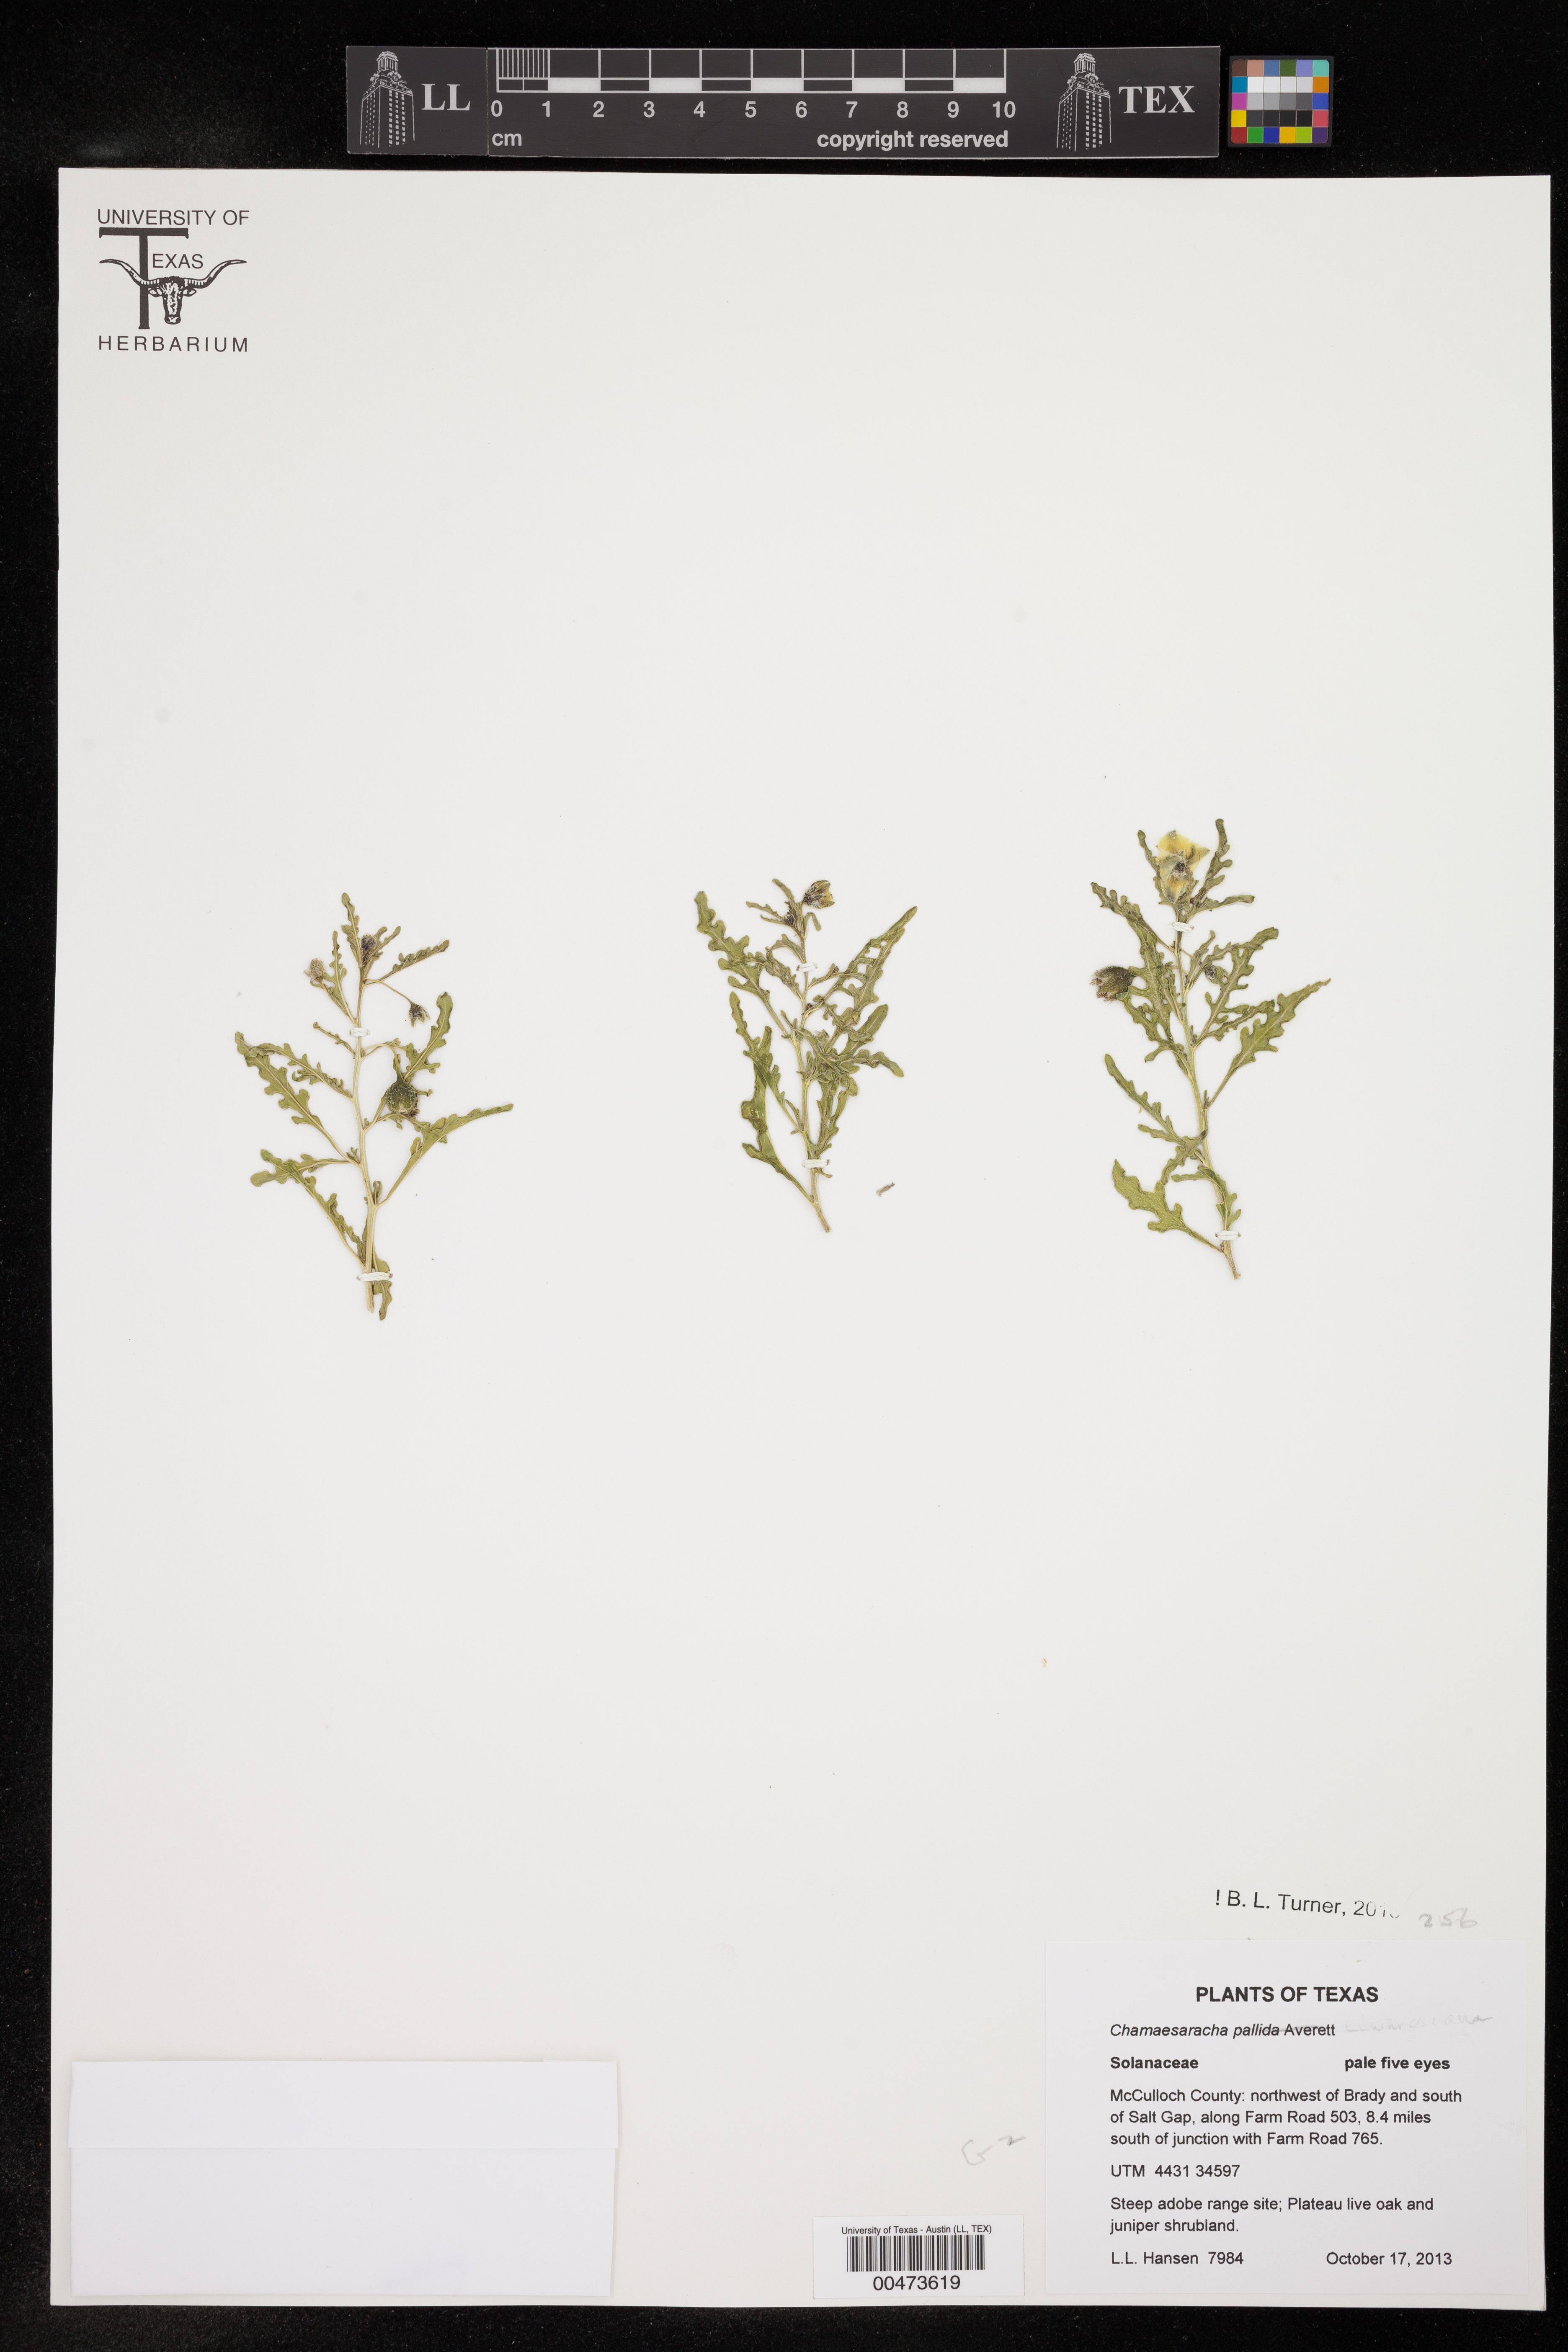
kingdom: Plantae
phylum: Tracheophyta
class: Magnoliopsida
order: Solanales
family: Solanaceae
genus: Chamaesaracha
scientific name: Chamaesaracha coronopus
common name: Smooth chamaesaracha
